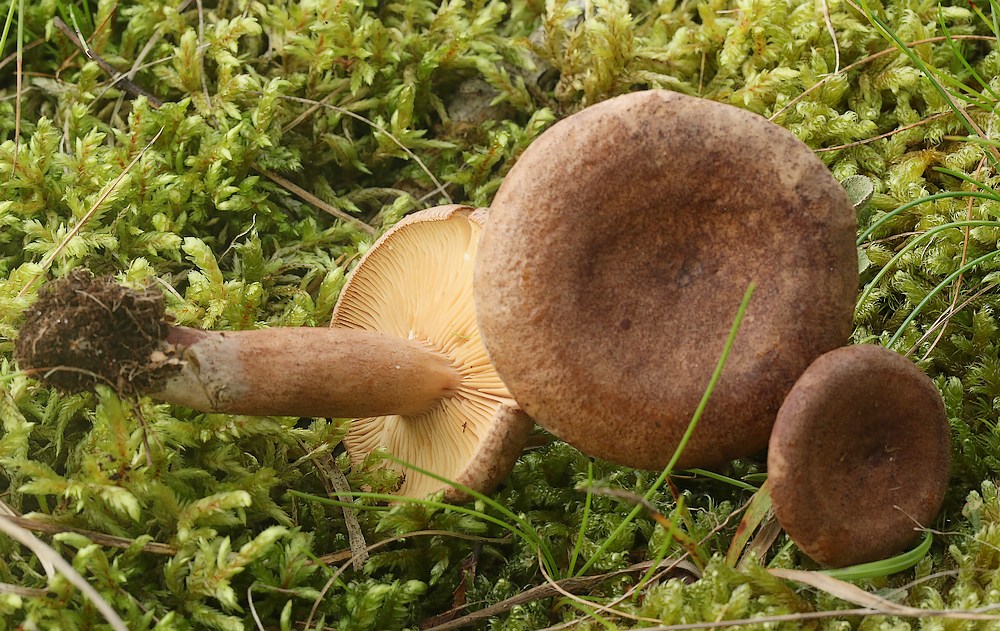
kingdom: Fungi
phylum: Basidiomycota
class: Agaricomycetes
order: Russulales
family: Russulaceae
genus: Lactarius
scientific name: Lactarius quietus
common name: ege-mælkehat
